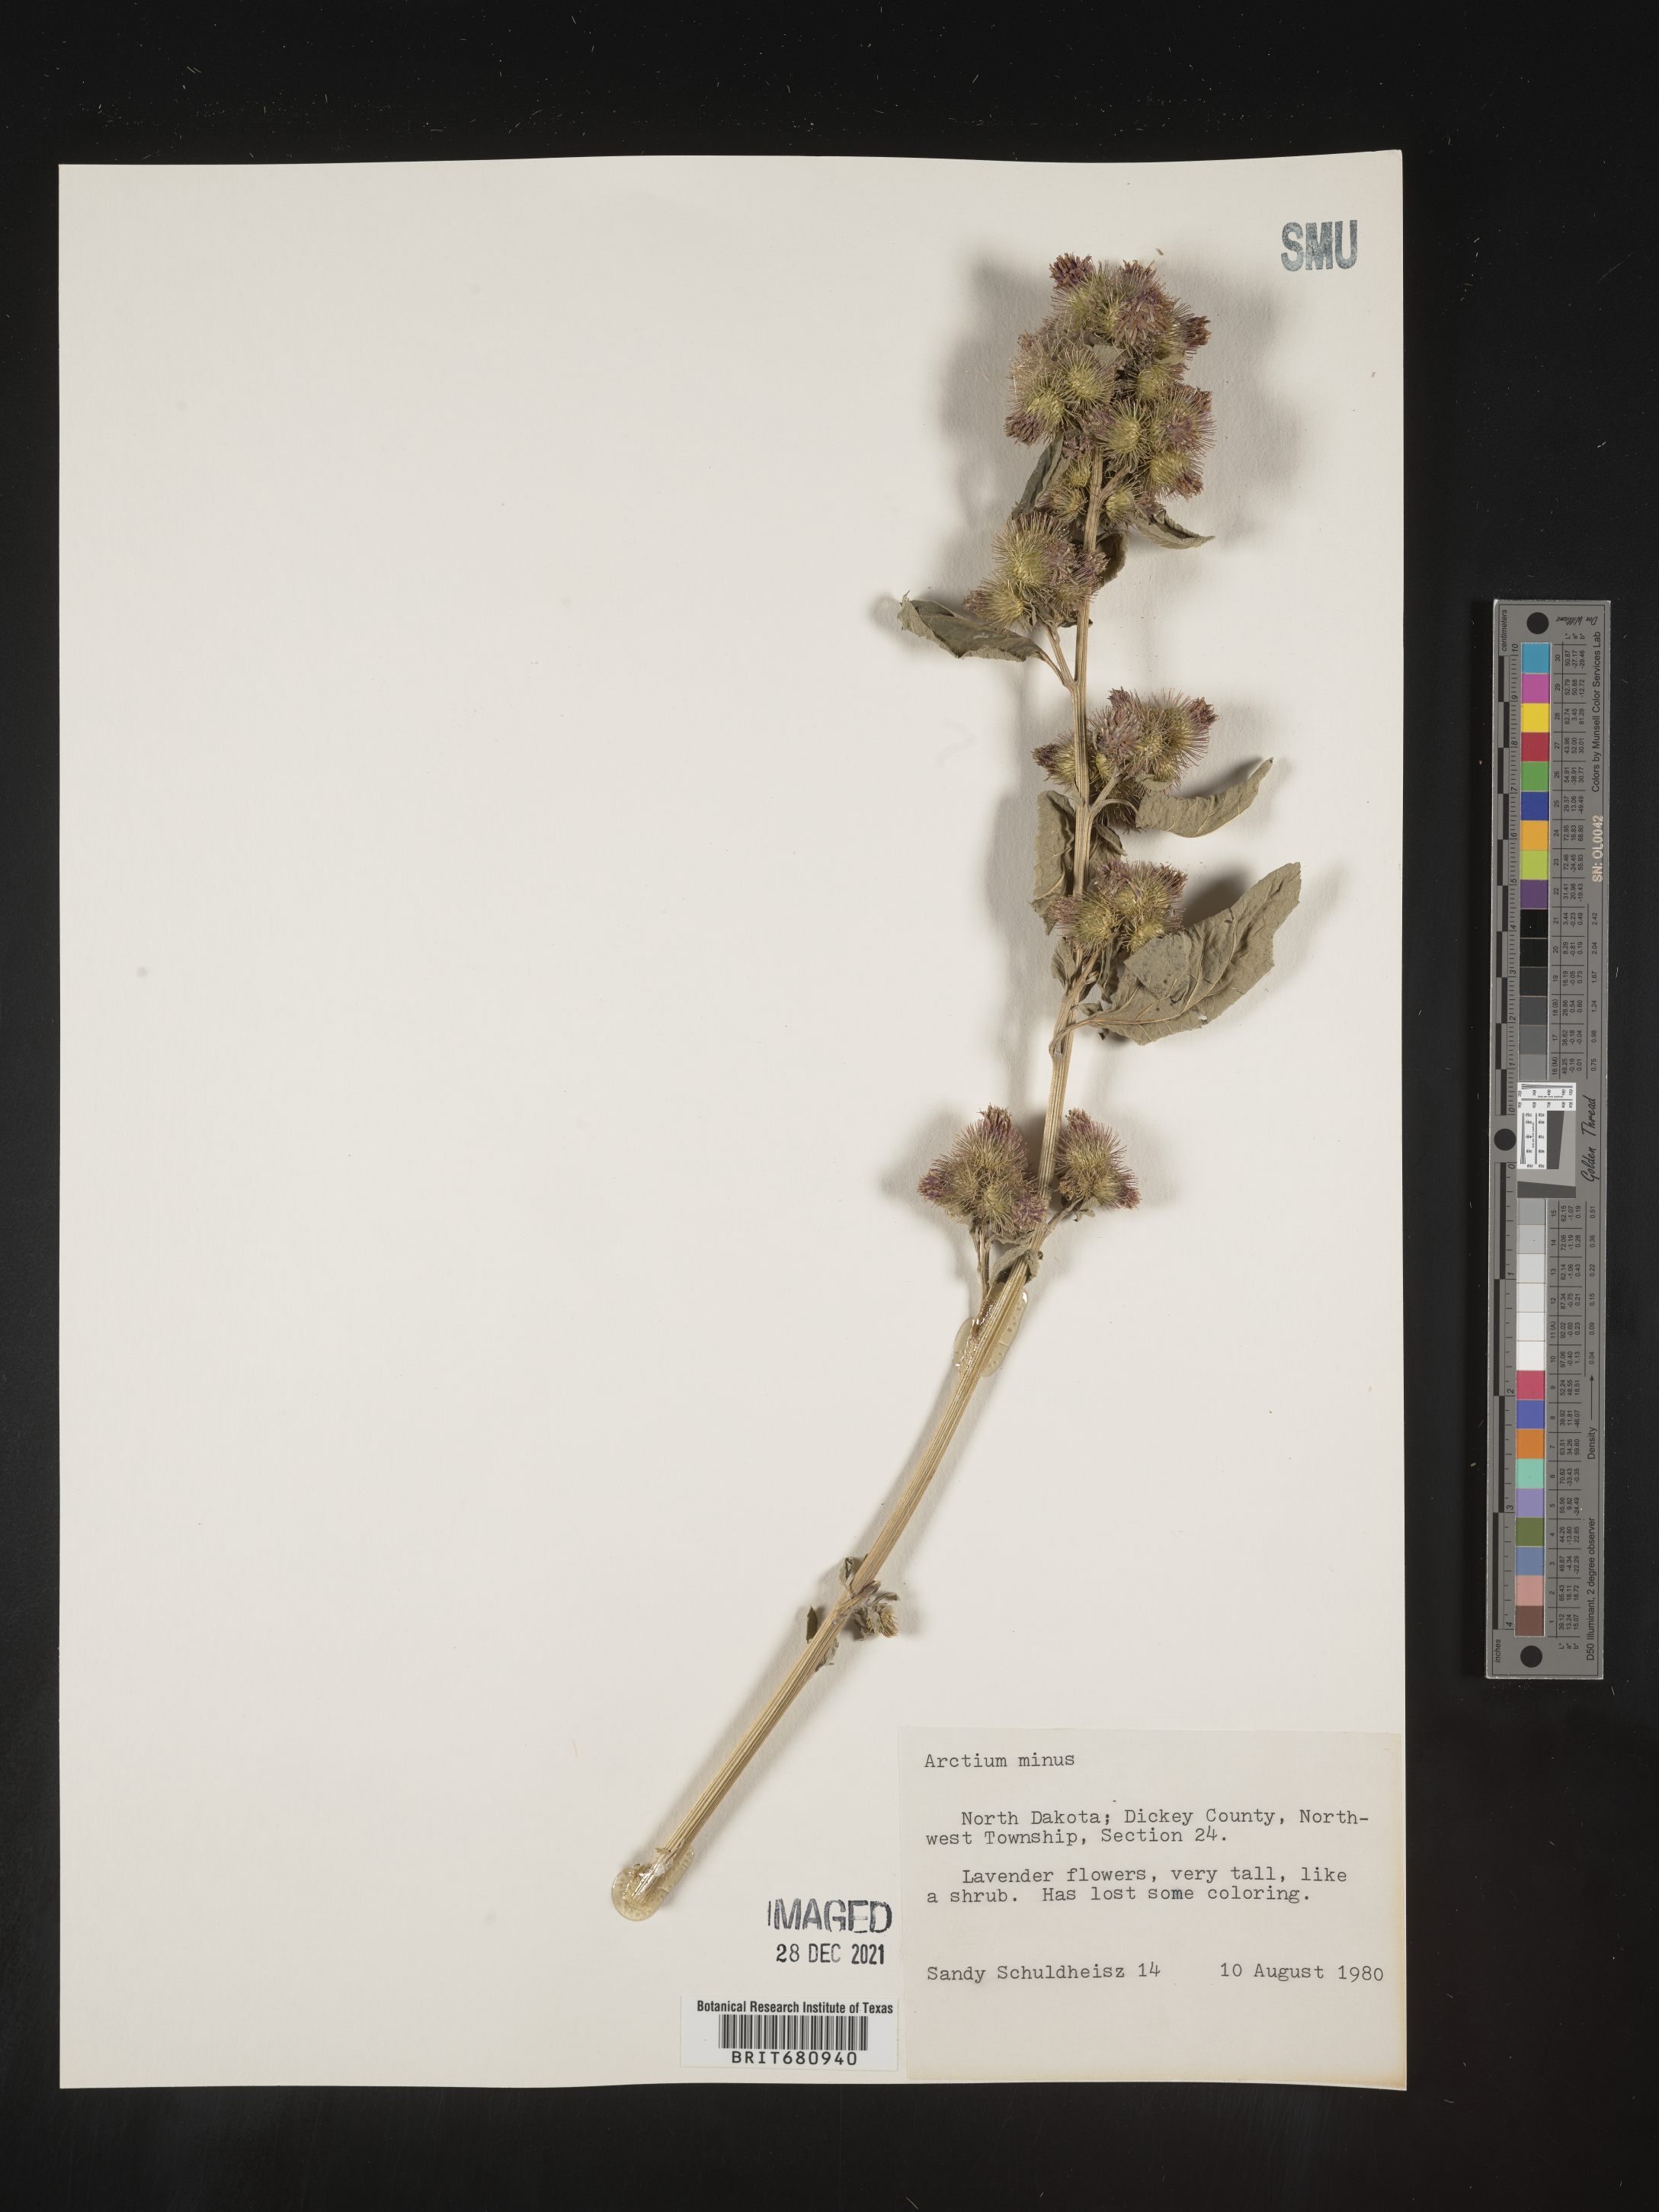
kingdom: Plantae
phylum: Tracheophyta
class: Magnoliopsida
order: Asterales
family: Asteraceae
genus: Arctium
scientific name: Arctium minus
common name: Lesser burdock
